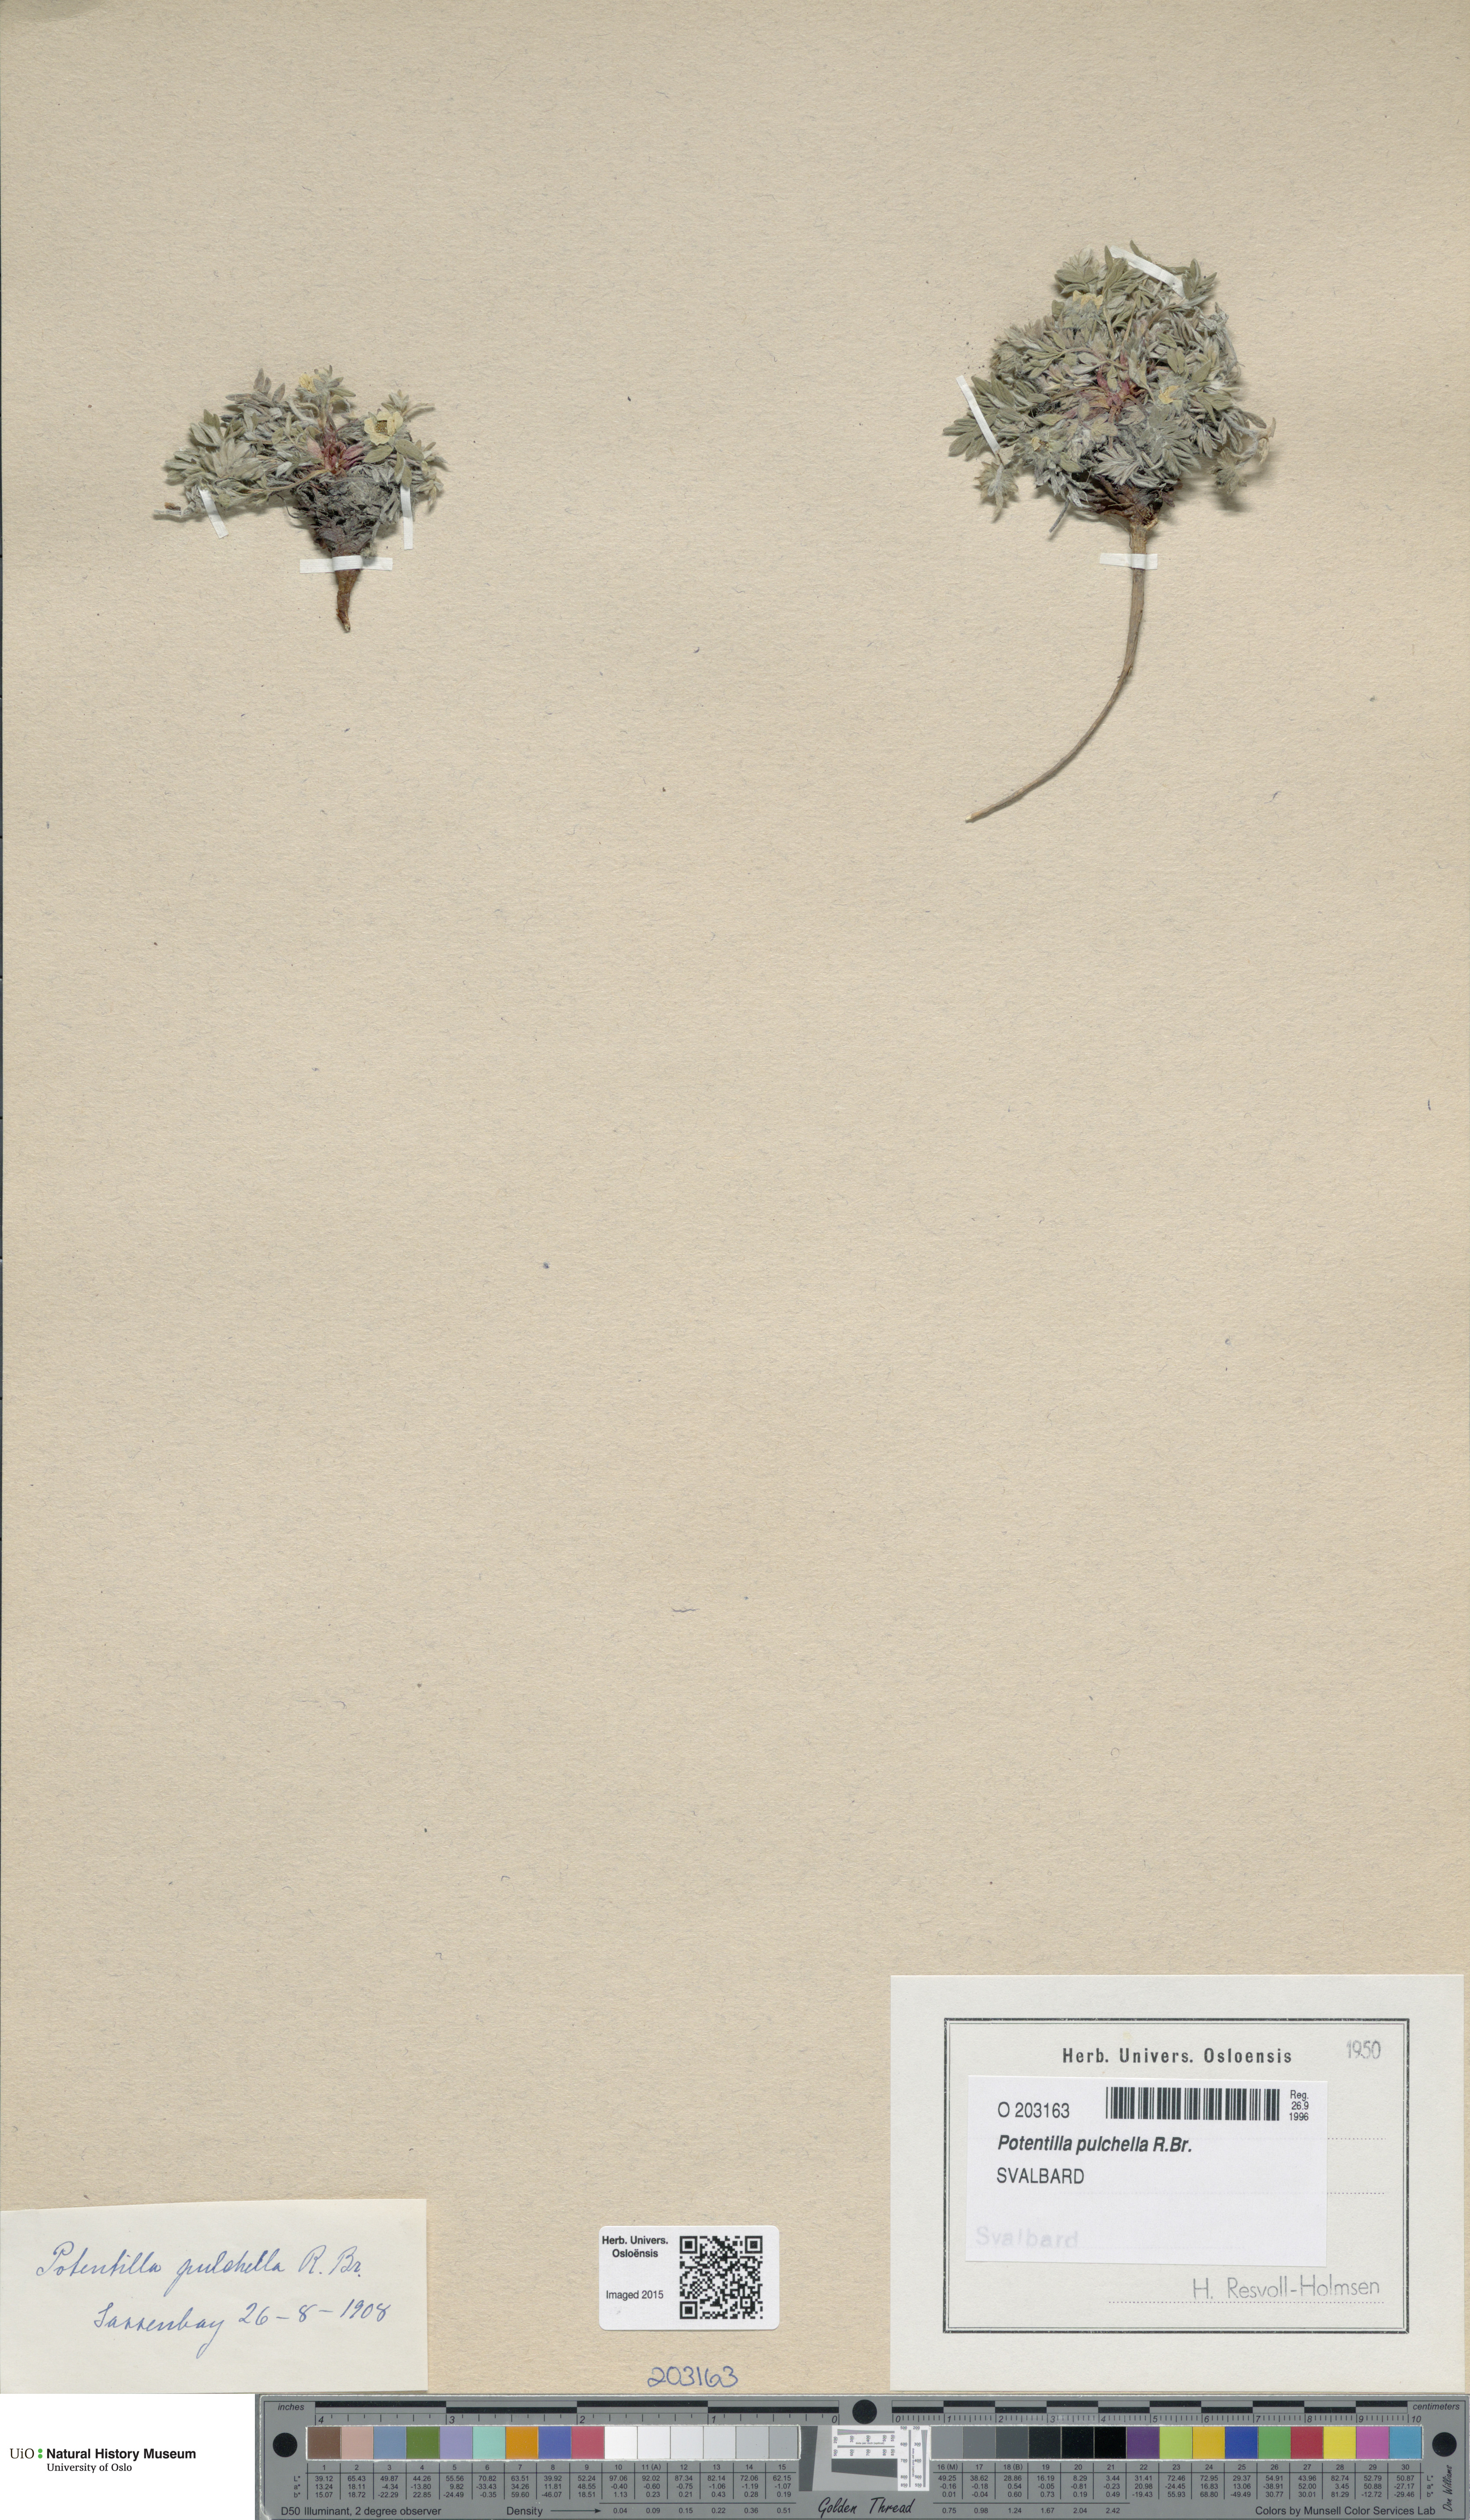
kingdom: Plantae
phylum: Tracheophyta
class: Magnoliopsida
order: Rosales
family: Rosaceae
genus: Potentilla
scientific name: Potentilla pulchella
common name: Pretty cinquefoil
